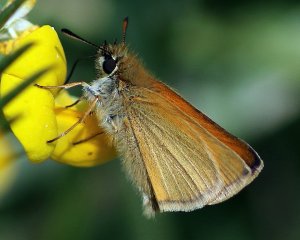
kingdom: Animalia
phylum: Arthropoda
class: Insecta
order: Lepidoptera
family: Hesperiidae
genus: Thymelicus
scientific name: Thymelicus lineola
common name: European Skipper
